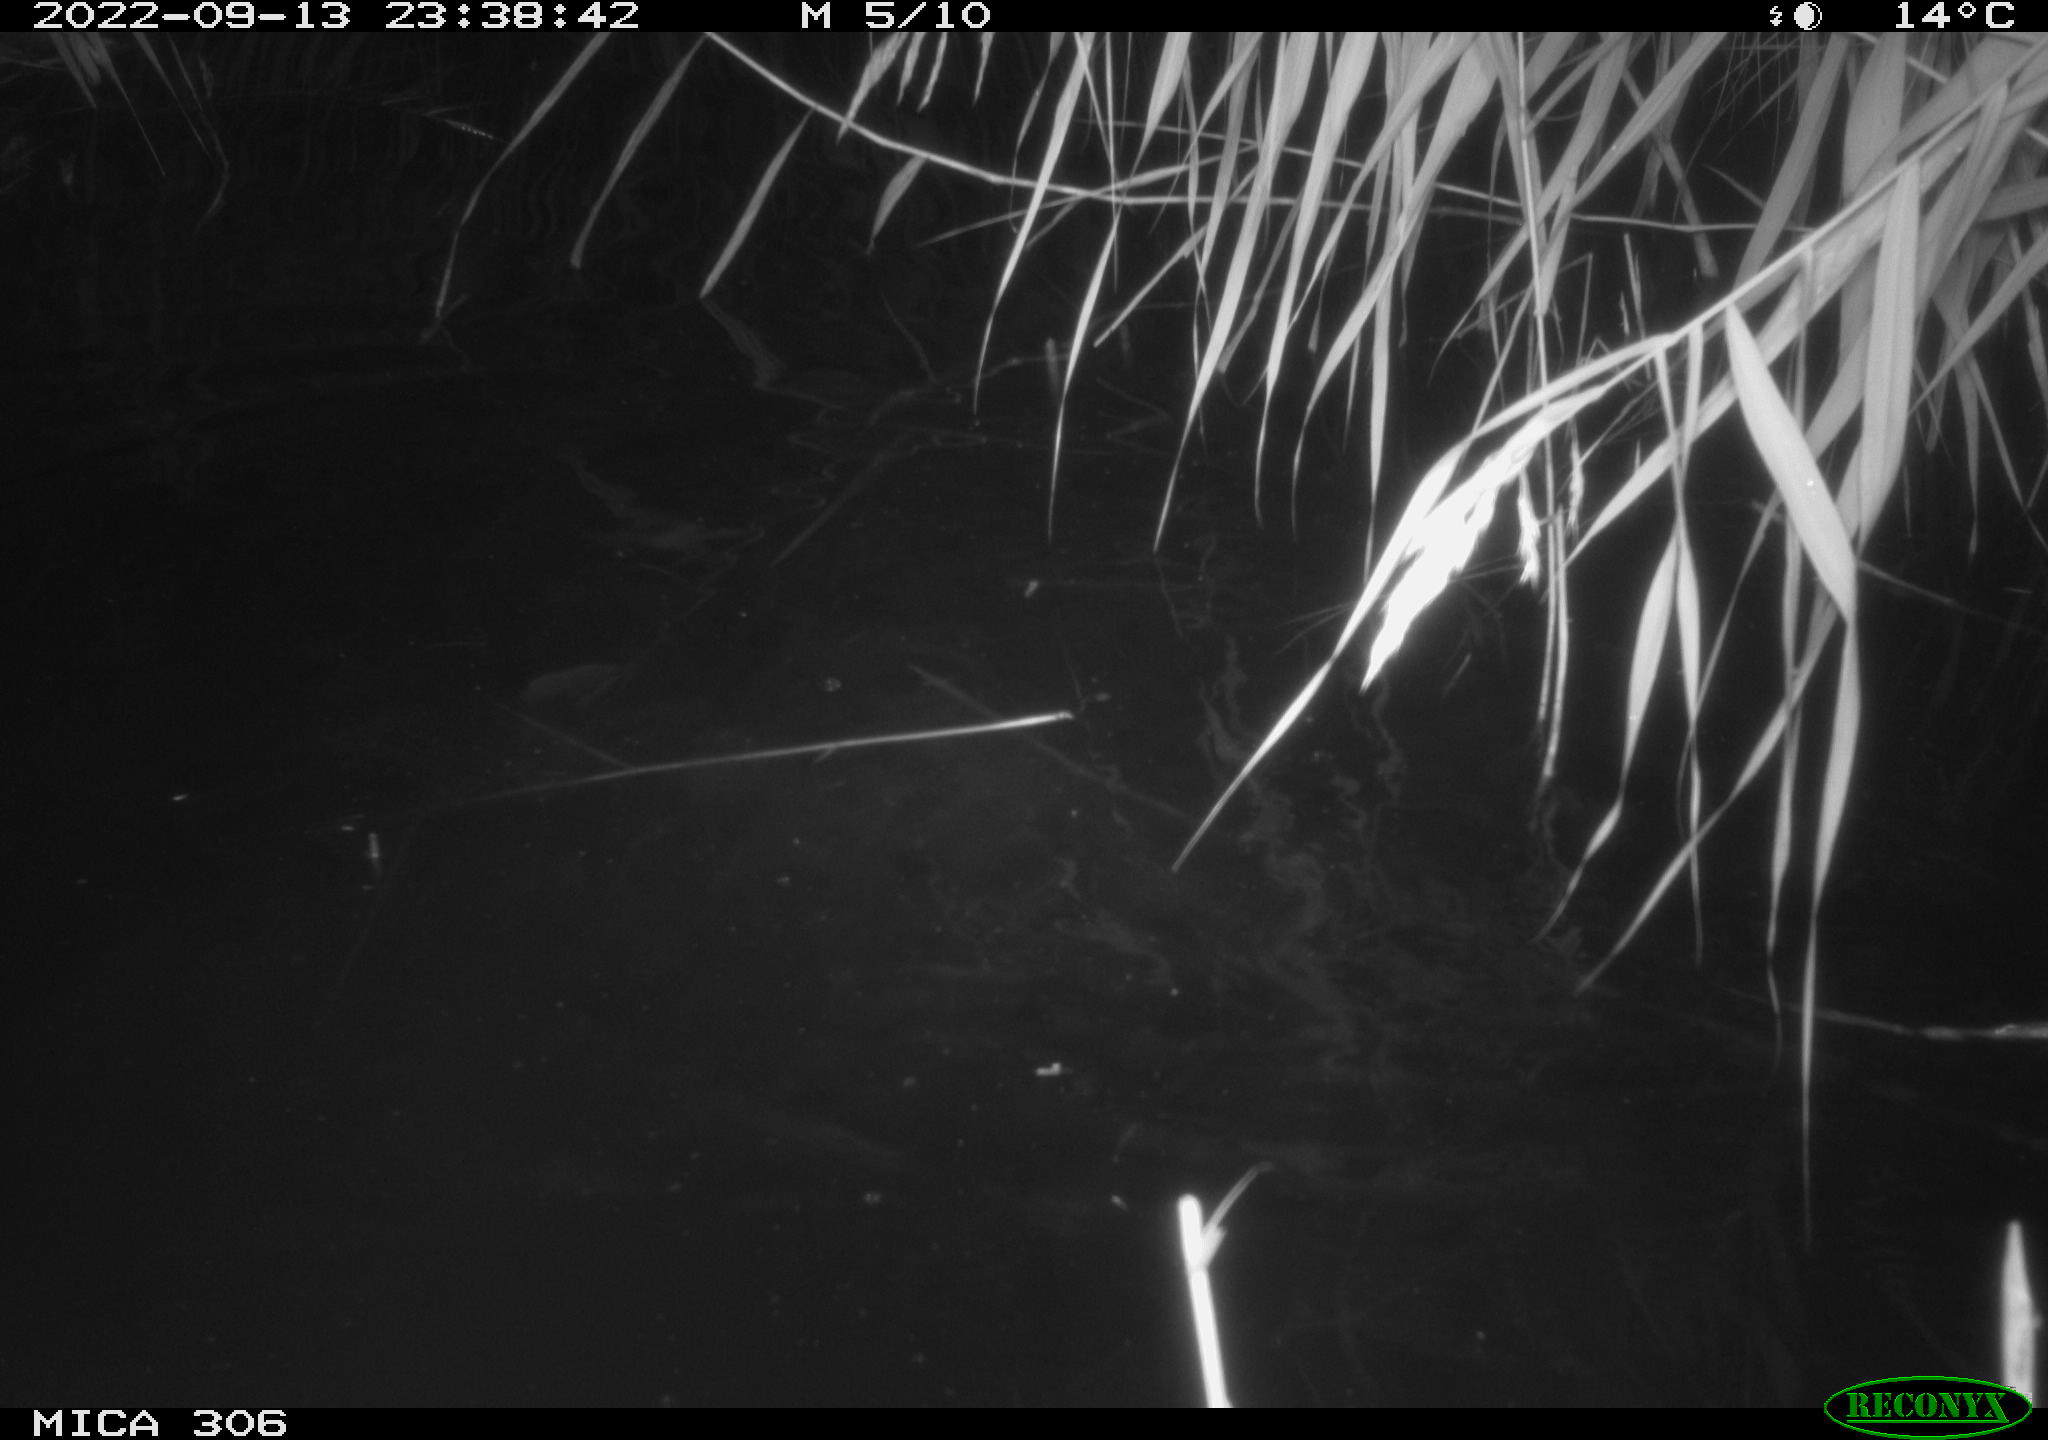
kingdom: Animalia
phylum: Chordata
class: Mammalia
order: Rodentia
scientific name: Rodentia
